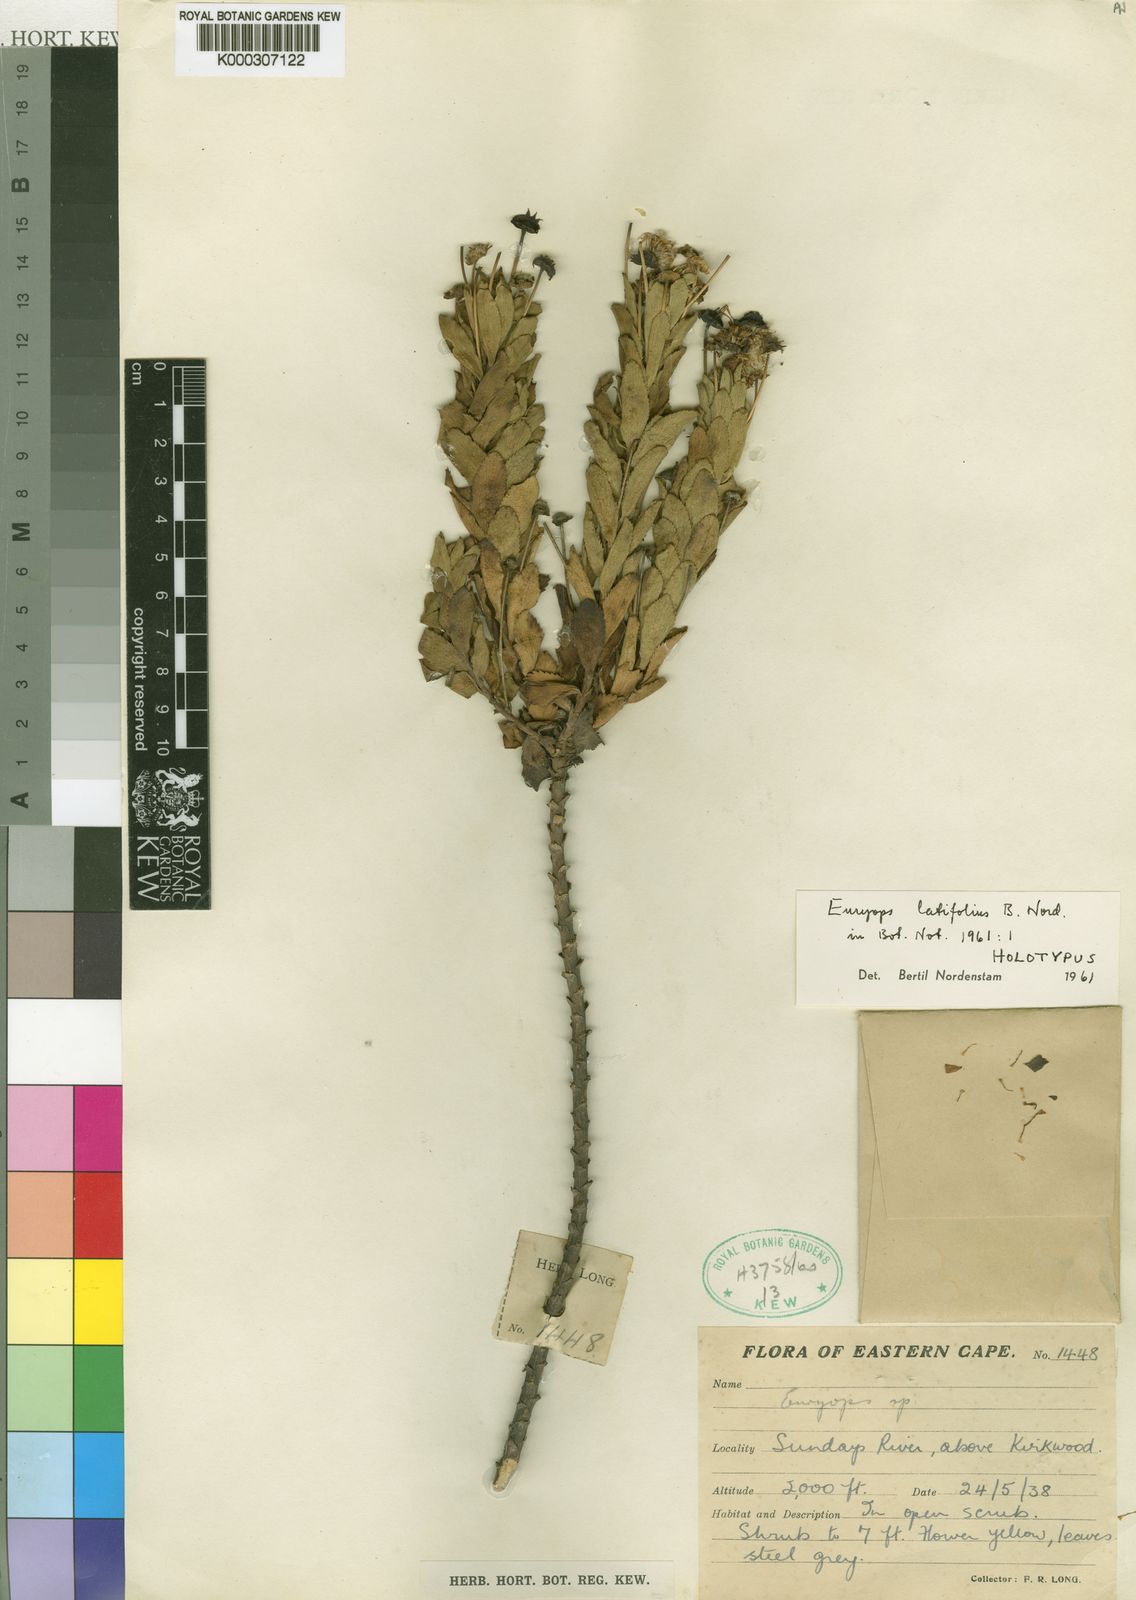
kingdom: Plantae
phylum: Tracheophyta
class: Magnoliopsida
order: Asterales
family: Asteraceae
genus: Euryops
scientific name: Euryops latifolius
